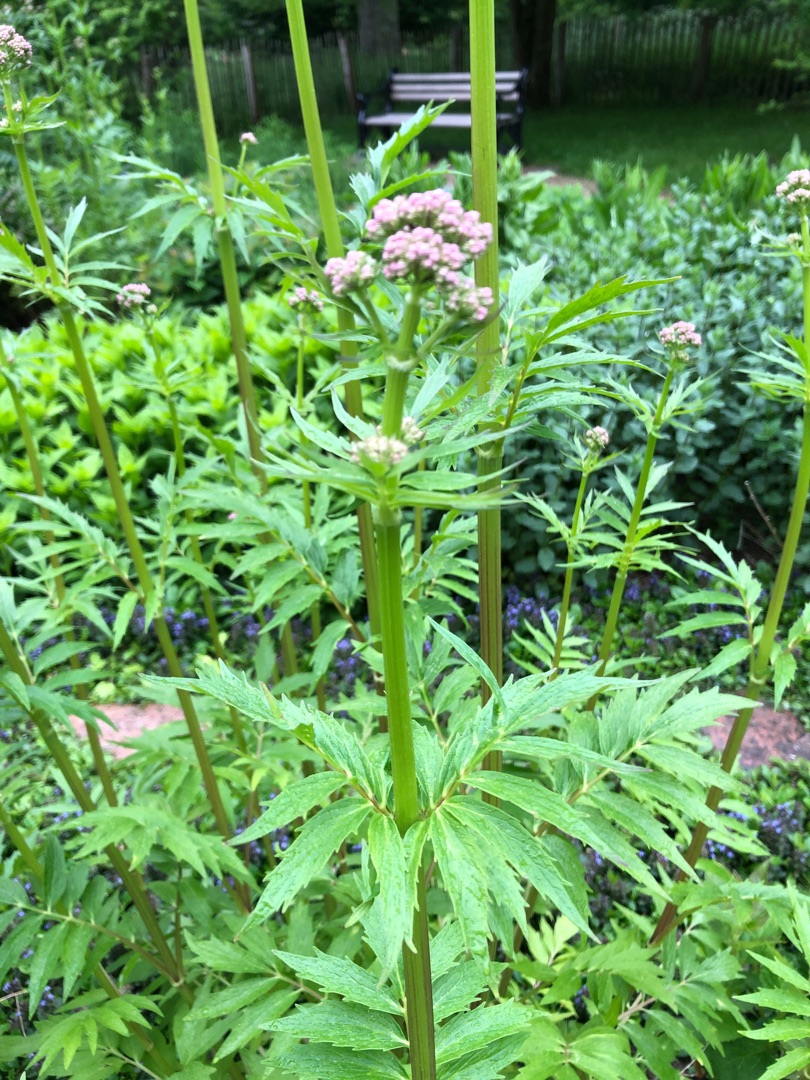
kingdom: Plantae
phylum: Tracheophyta
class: Magnoliopsida
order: Dipsacales
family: Caprifoliaceae
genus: Valeriana
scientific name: Valeriana sambucifolia
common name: Hyldebladet baldrian
